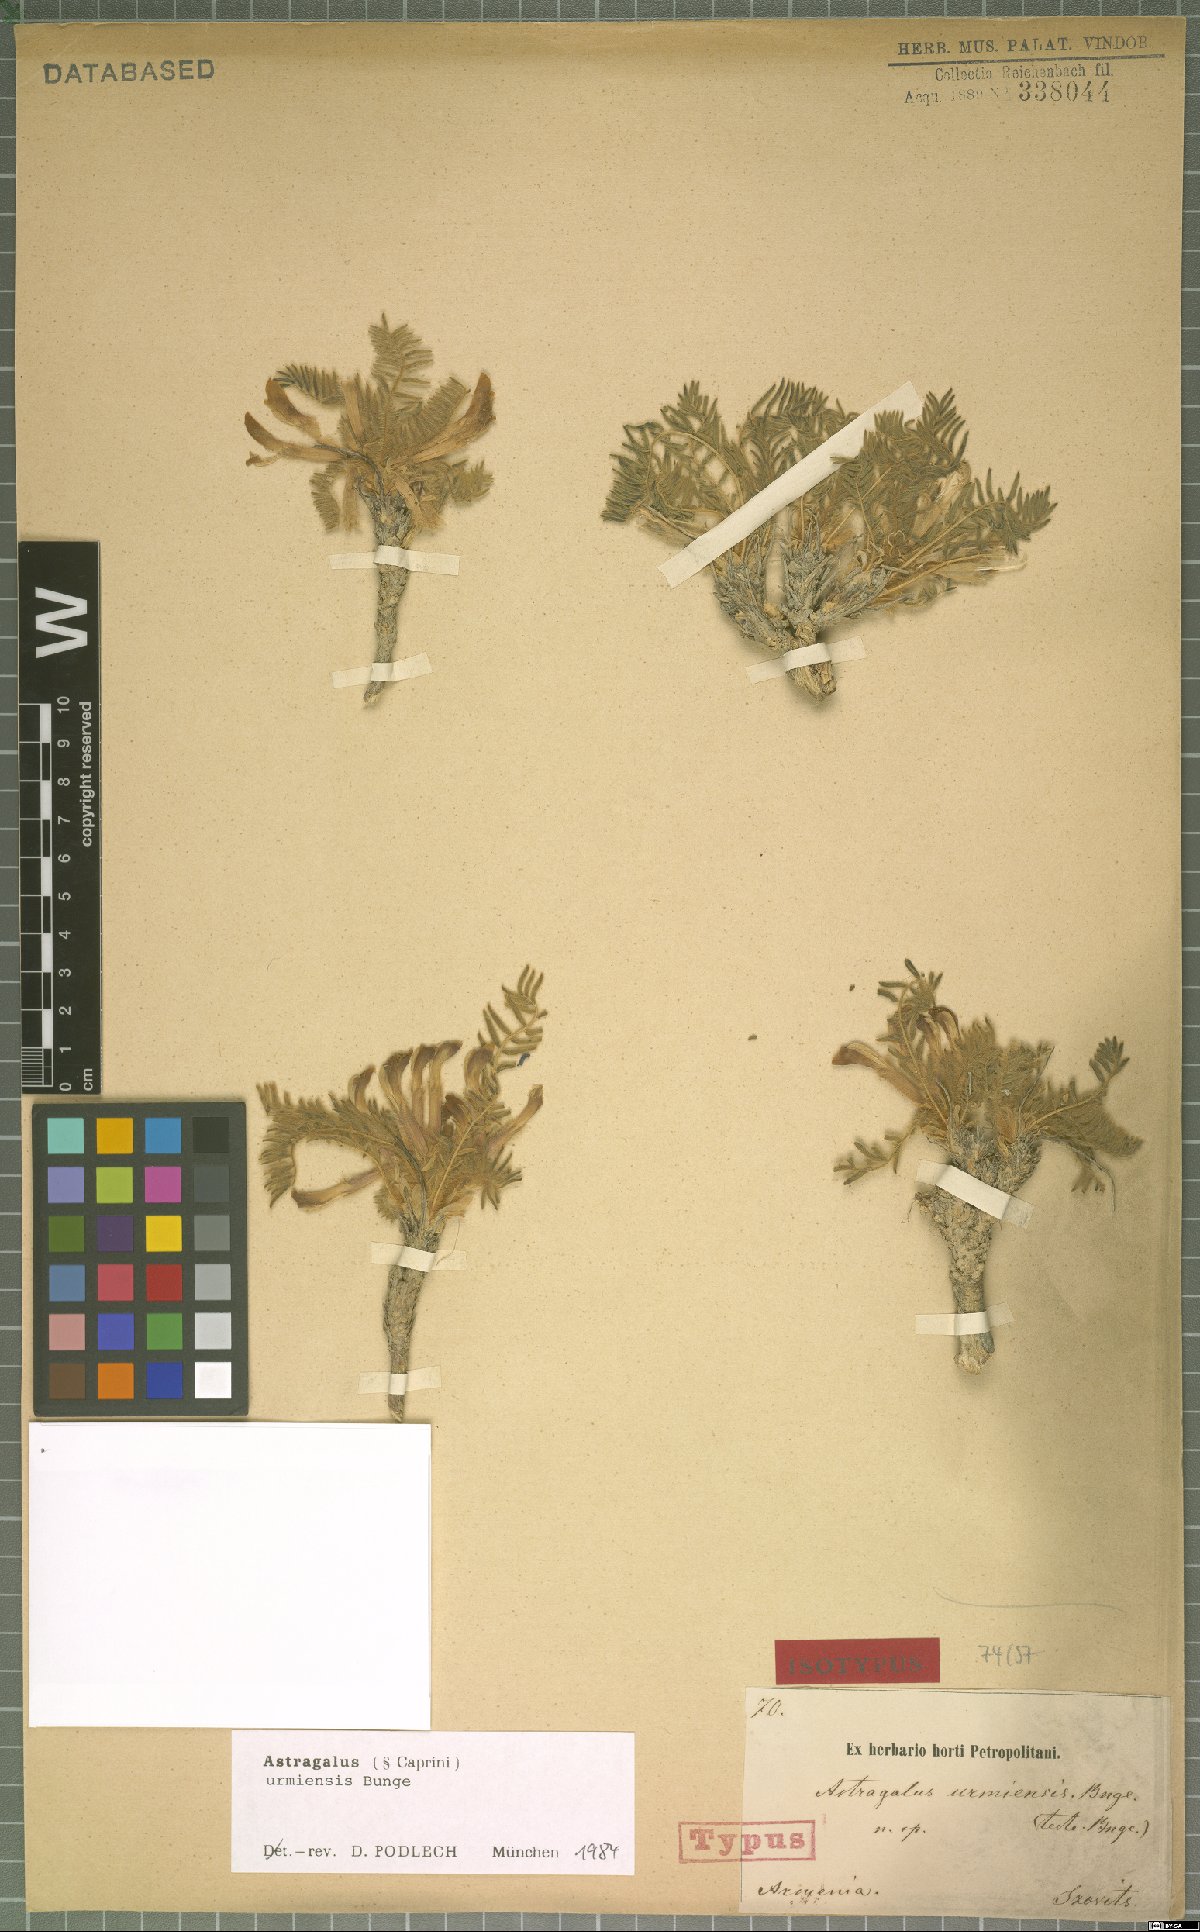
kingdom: Plantae
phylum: Tracheophyta
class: Magnoliopsida
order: Fabales
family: Fabaceae
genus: Astragalus
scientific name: Astragalus urmiensis
